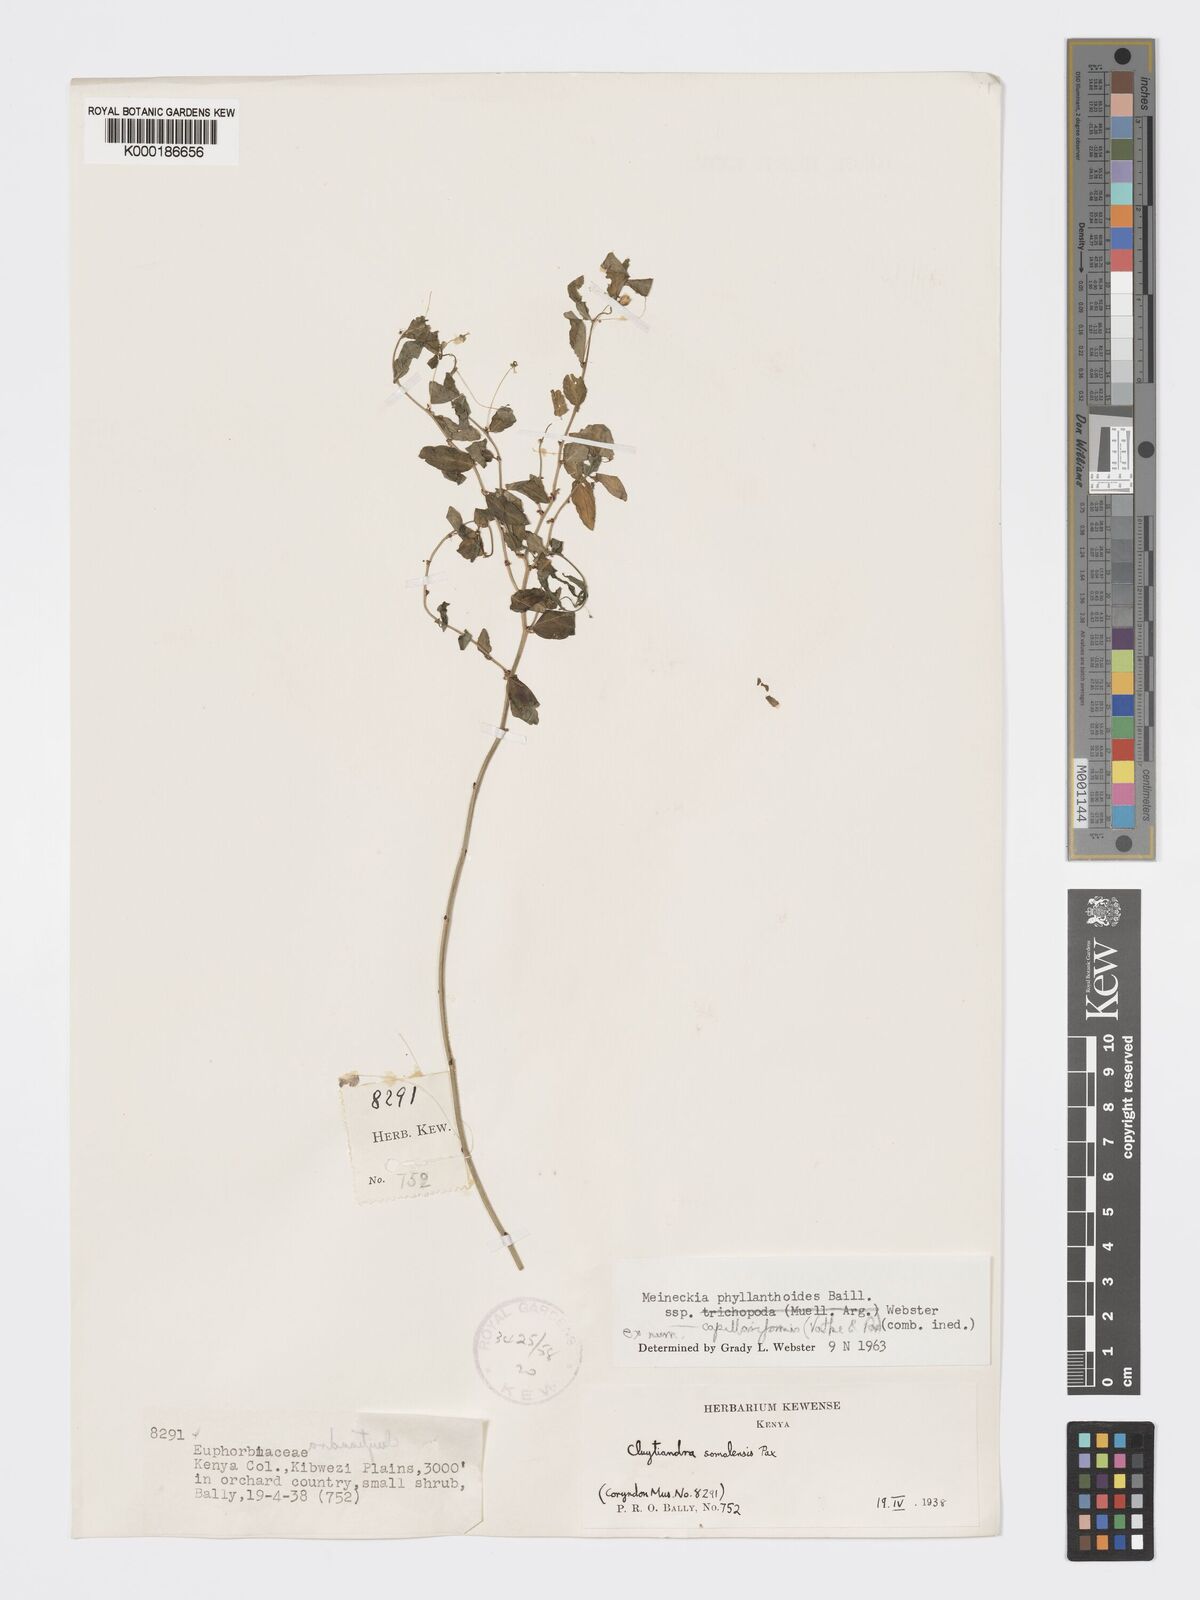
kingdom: Plantae
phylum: Tracheophyta
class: Magnoliopsida
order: Malpighiales
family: Phyllanthaceae
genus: Meineckia
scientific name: Meineckia phyllanthoides
